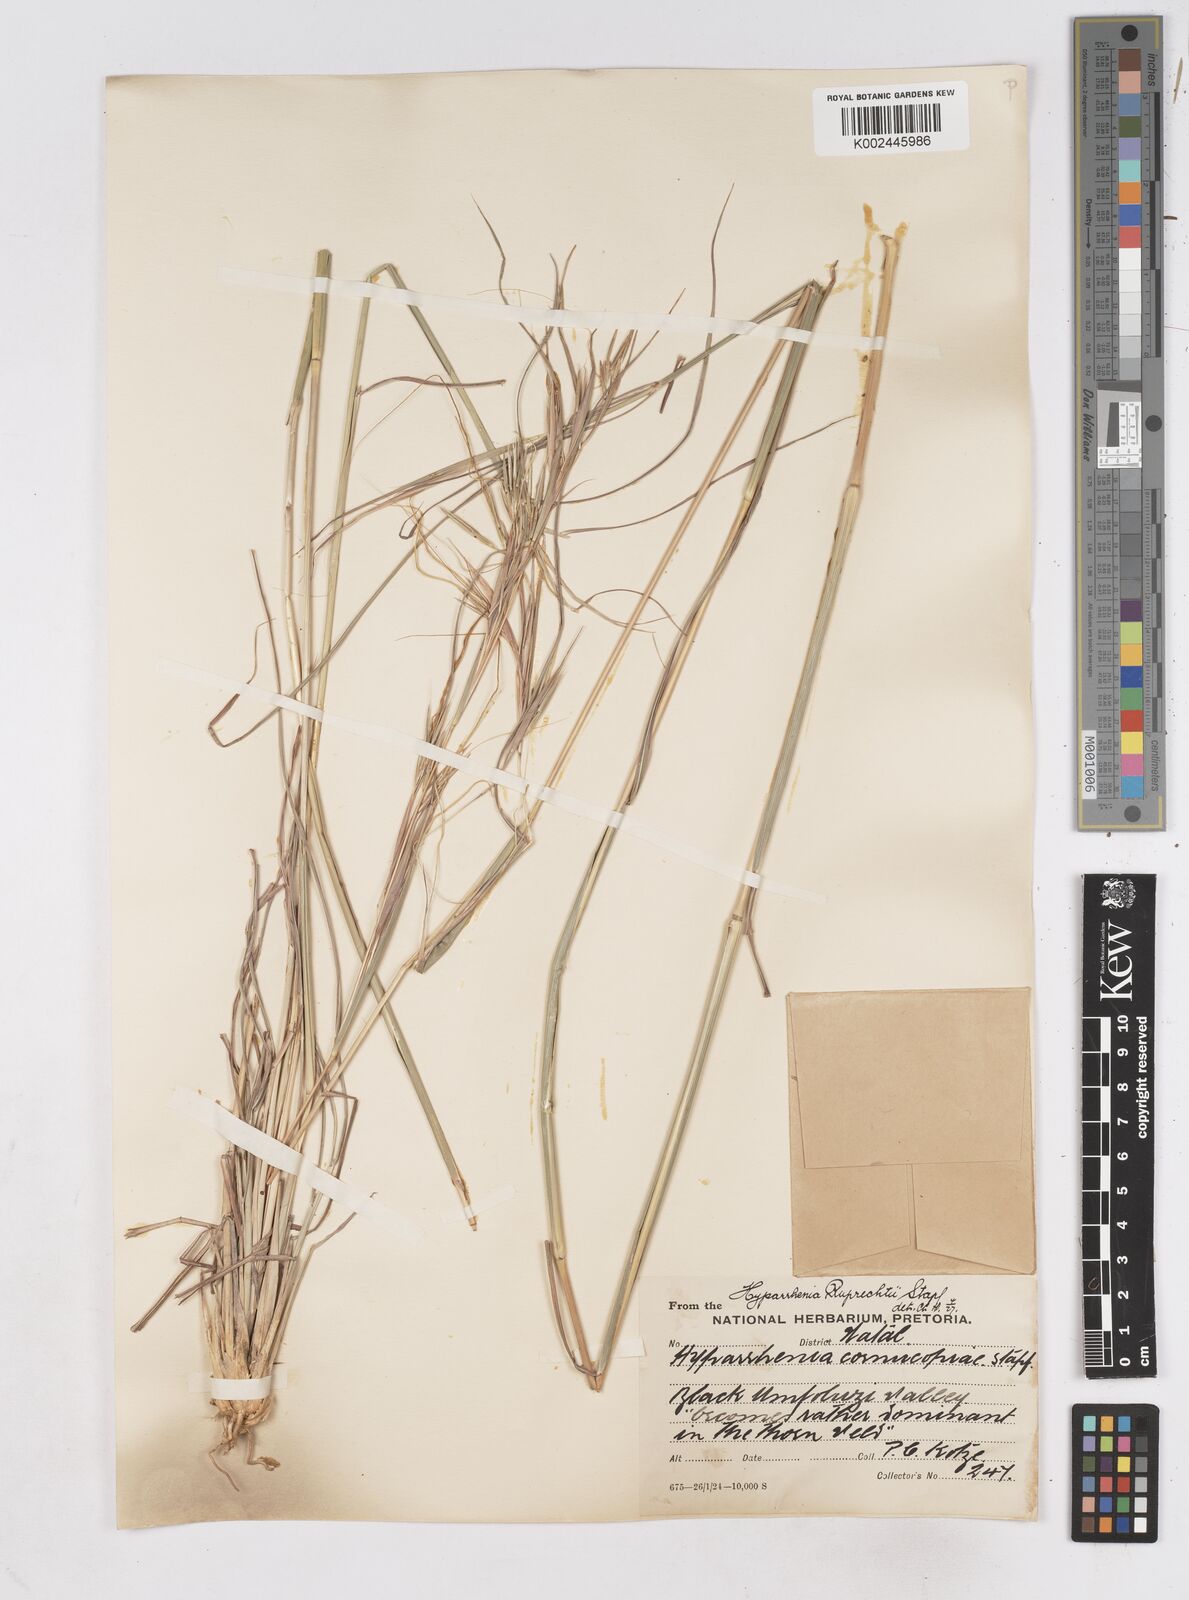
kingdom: Plantae
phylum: Tracheophyta
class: Liliopsida
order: Poales
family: Poaceae
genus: Hyperthelia
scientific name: Hyperthelia dissoluta
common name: Yellow thatching grass
